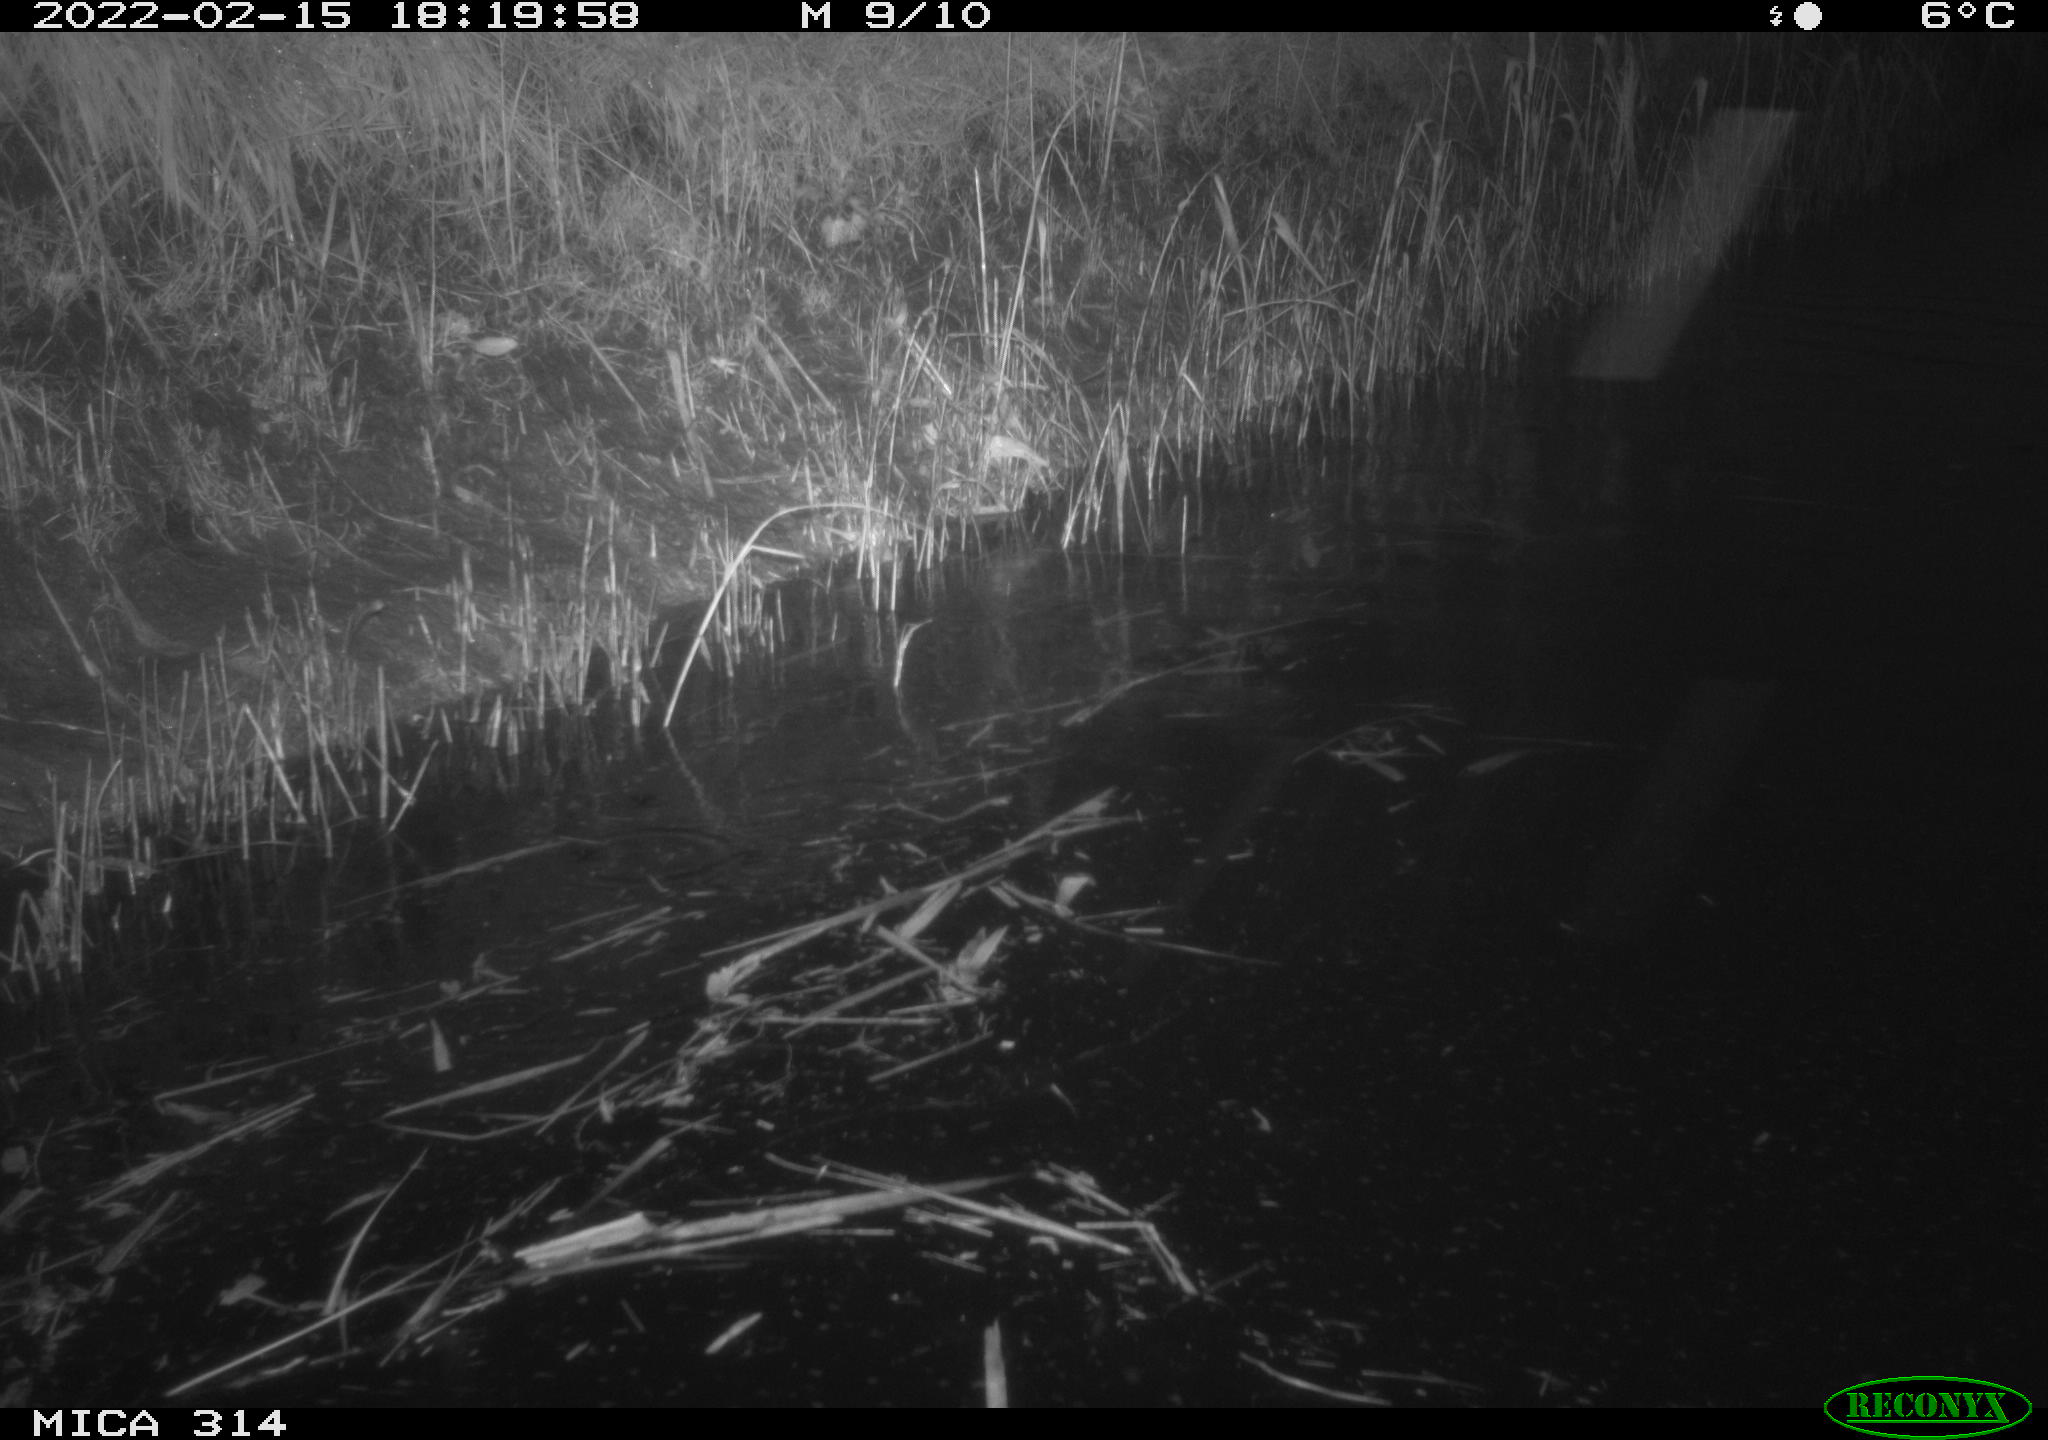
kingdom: Animalia
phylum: Chordata
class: Aves
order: Anseriformes
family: Anatidae
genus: Mareca
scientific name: Mareca strepera
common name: Gadwall
